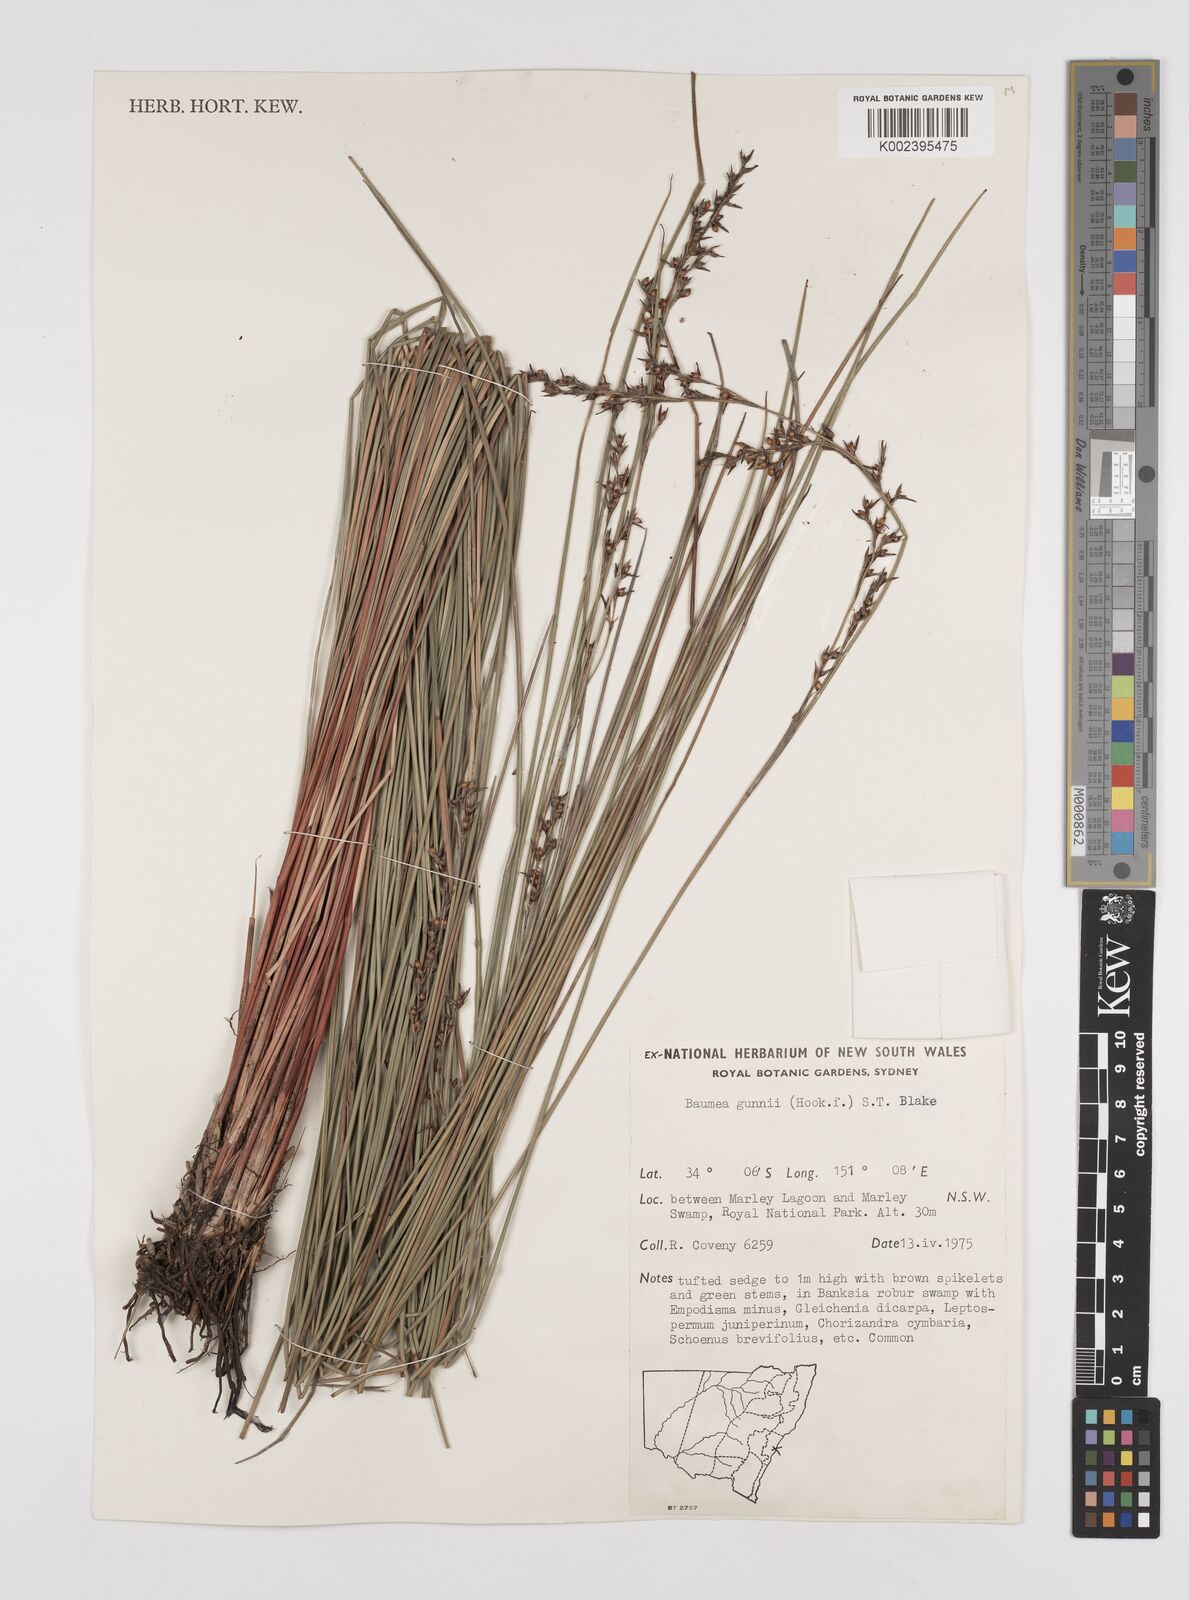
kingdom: Plantae
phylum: Tracheophyta
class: Liliopsida
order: Poales
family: Cyperaceae
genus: Machaerina
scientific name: Machaerina gunnii
